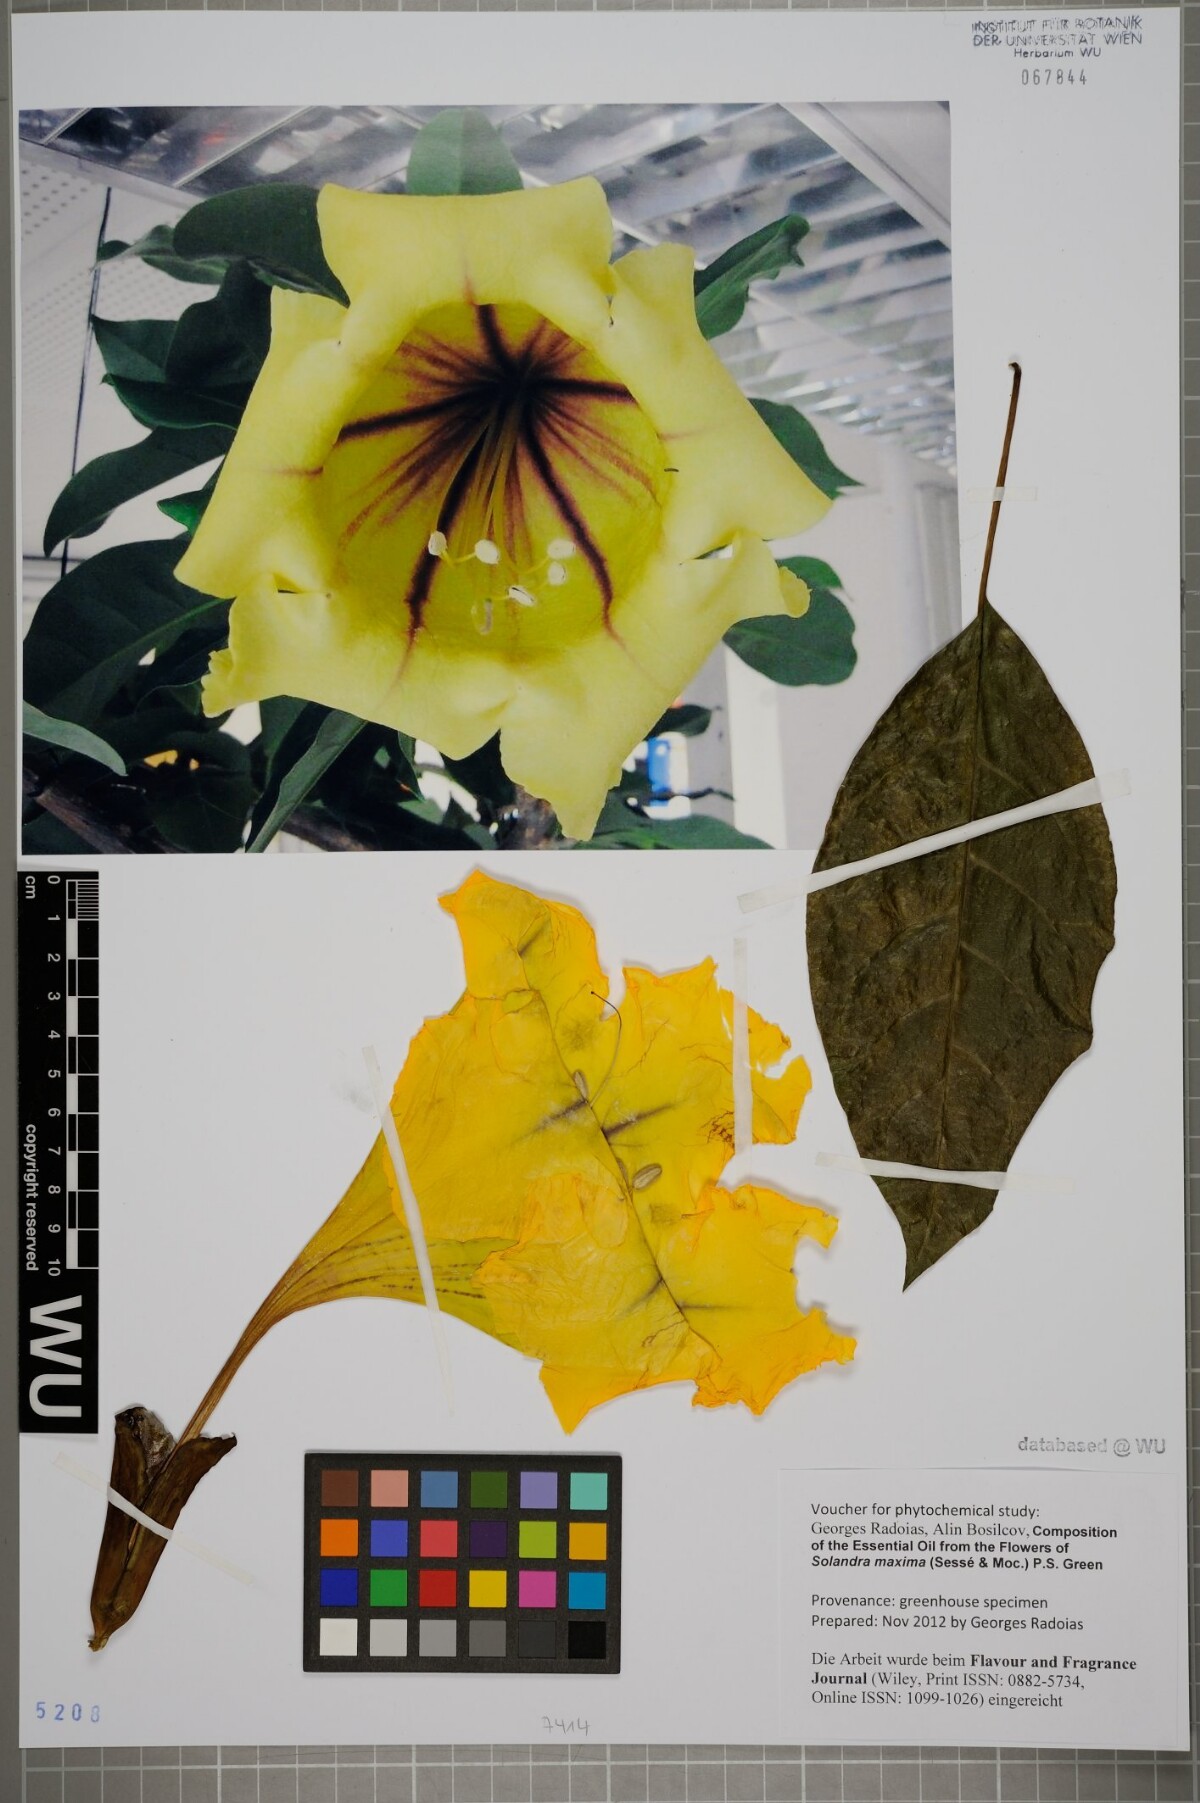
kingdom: Plantae
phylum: Tracheophyta
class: Magnoliopsida
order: Solanales
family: Solanaceae
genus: Solandra
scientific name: Solandra maxima
